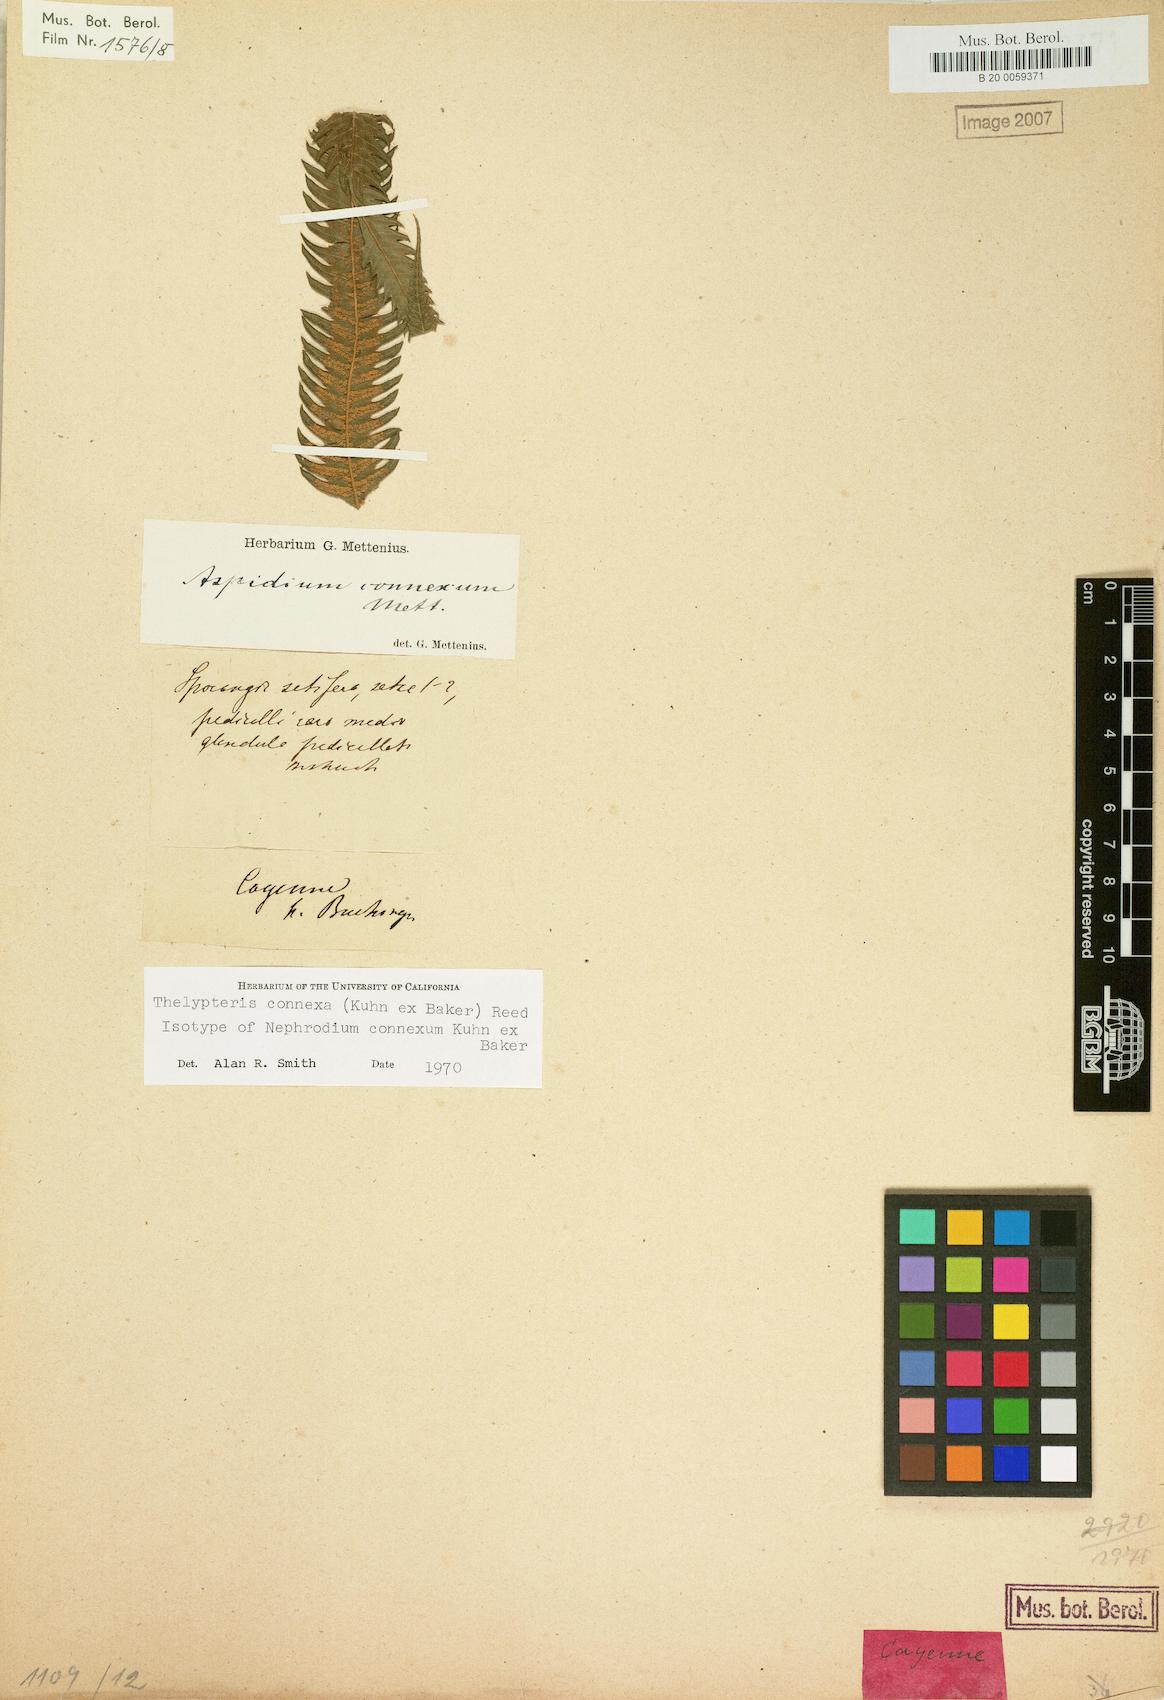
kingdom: Plantae
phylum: Tracheophyta
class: Polypodiopsida
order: Polypodiales
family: Thelypteridaceae
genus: Steiropteris
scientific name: Steiropteris connexa
